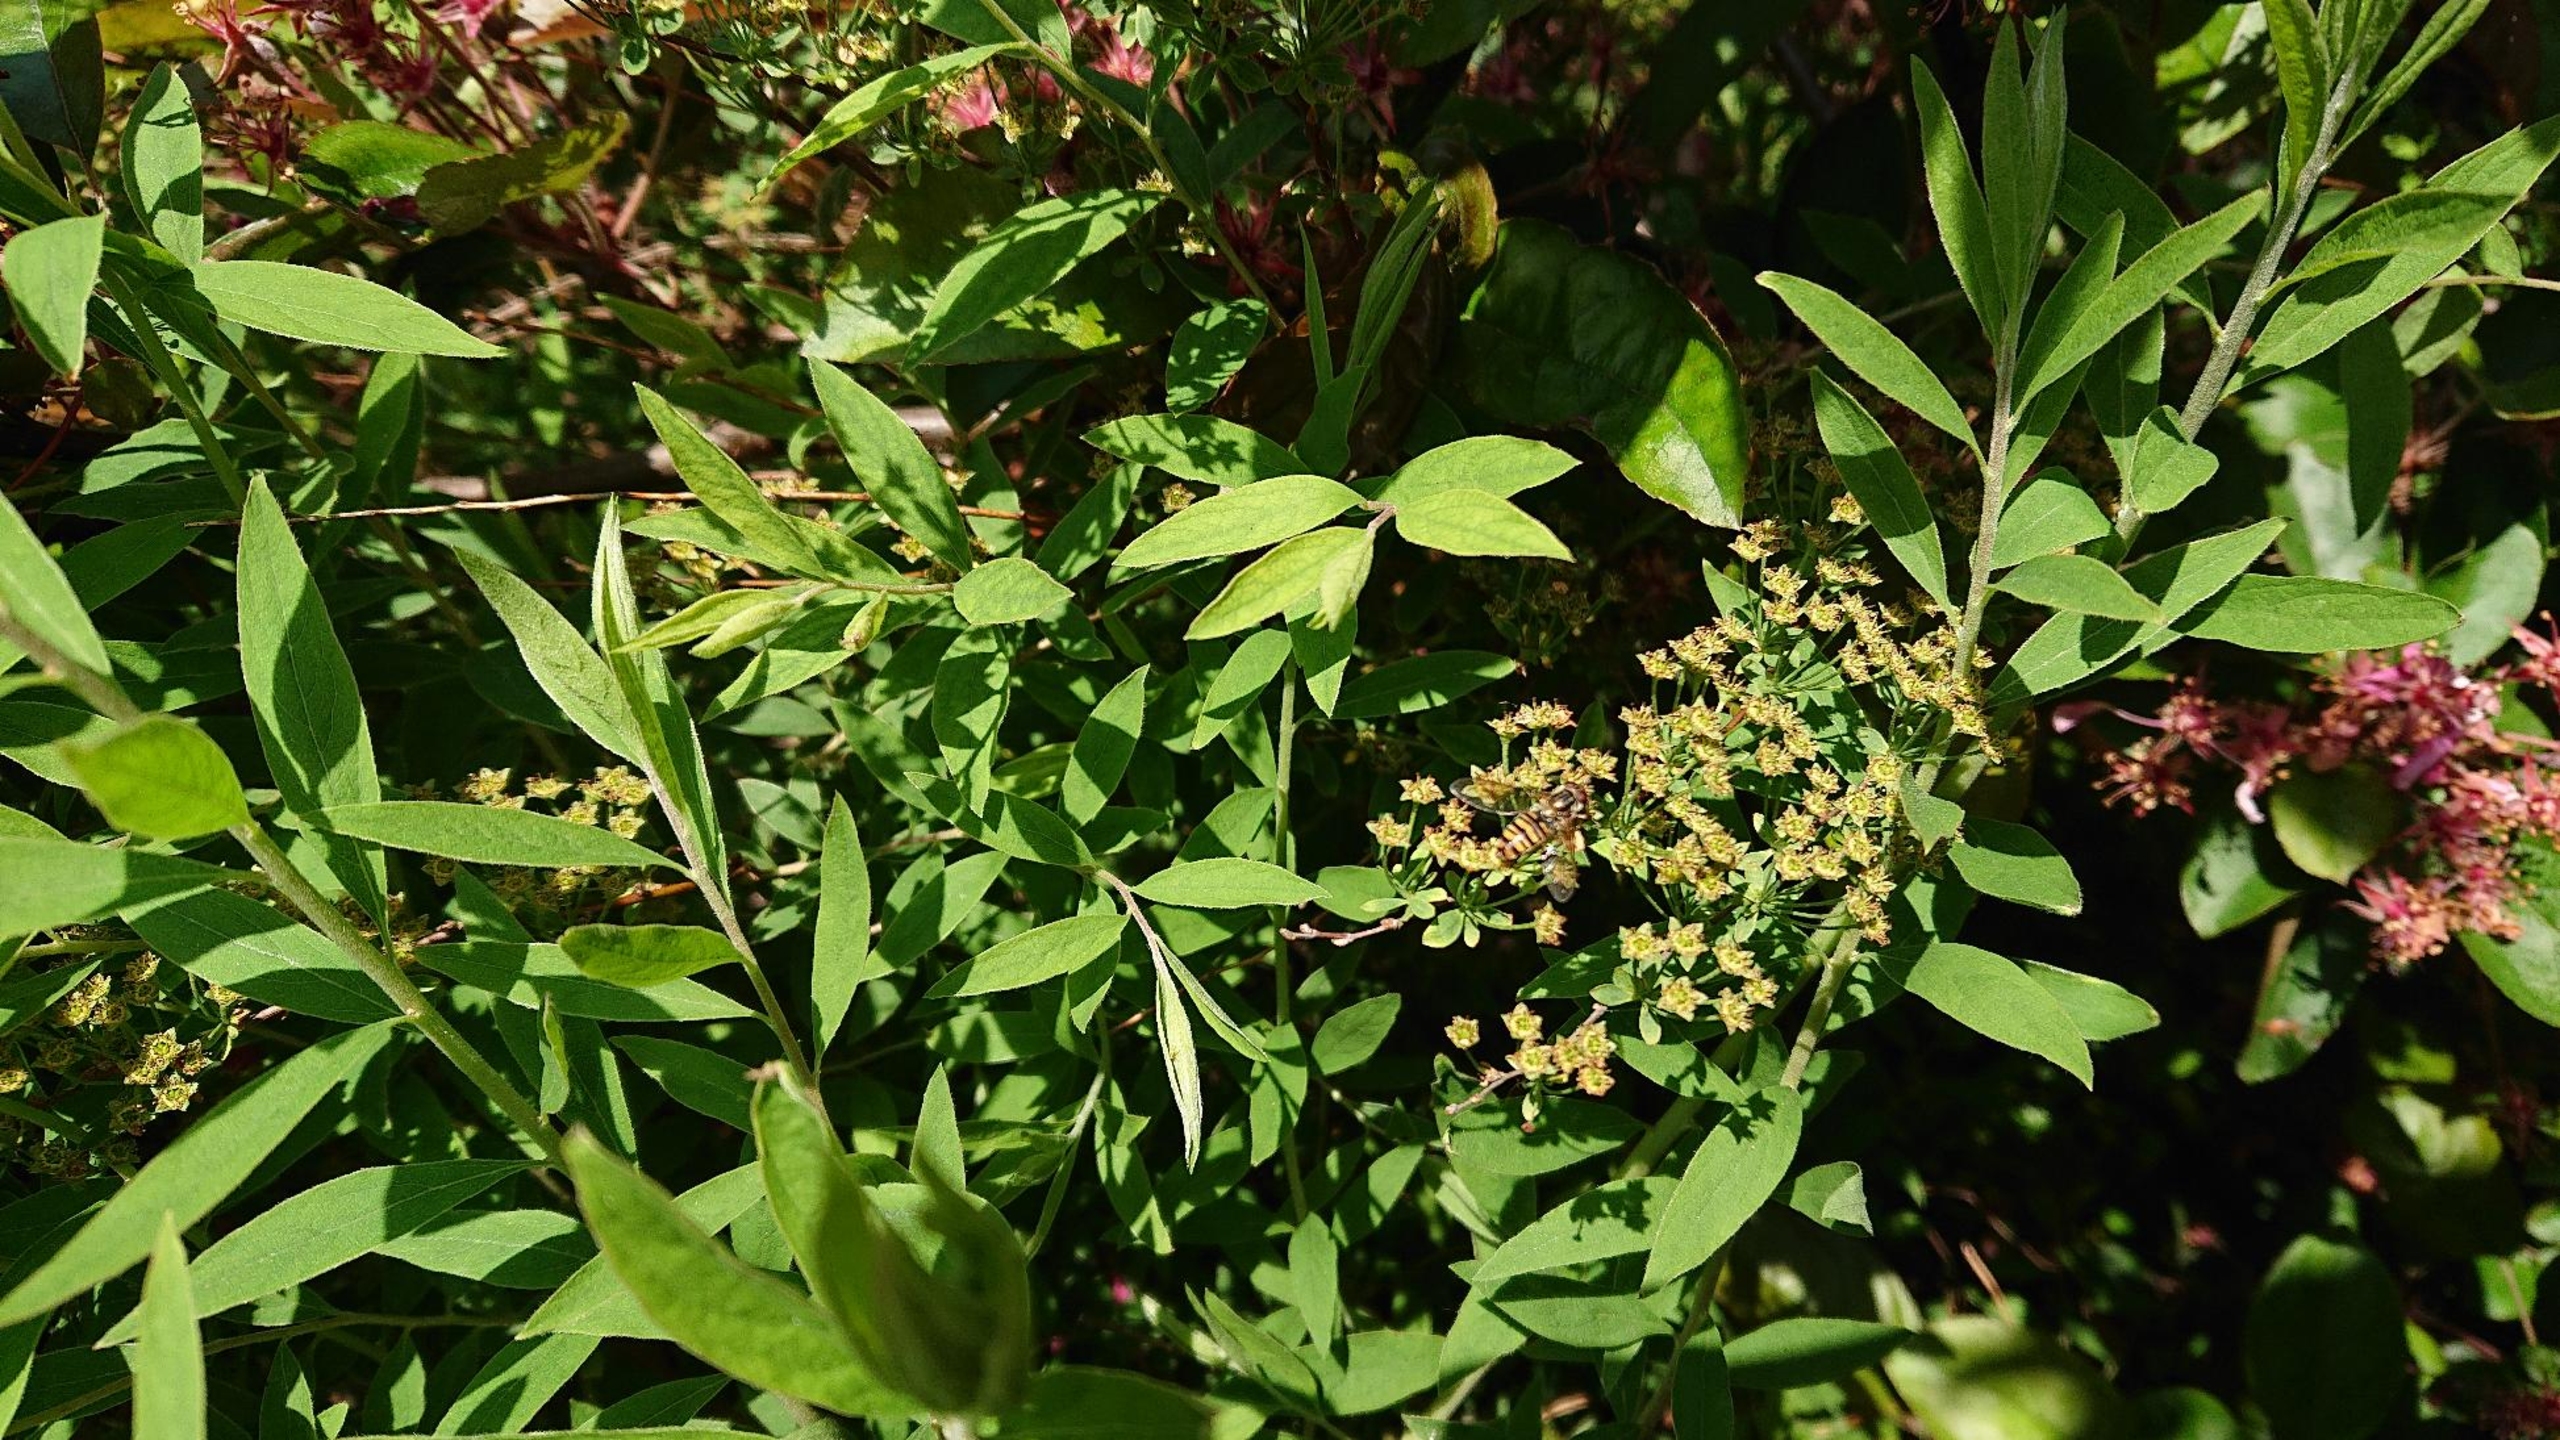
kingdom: Animalia
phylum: Arthropoda
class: Insecta
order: Diptera
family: Syrphidae
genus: Episyrphus
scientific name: Episyrphus balteatus
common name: Dobbeltbåndet svirreflue
